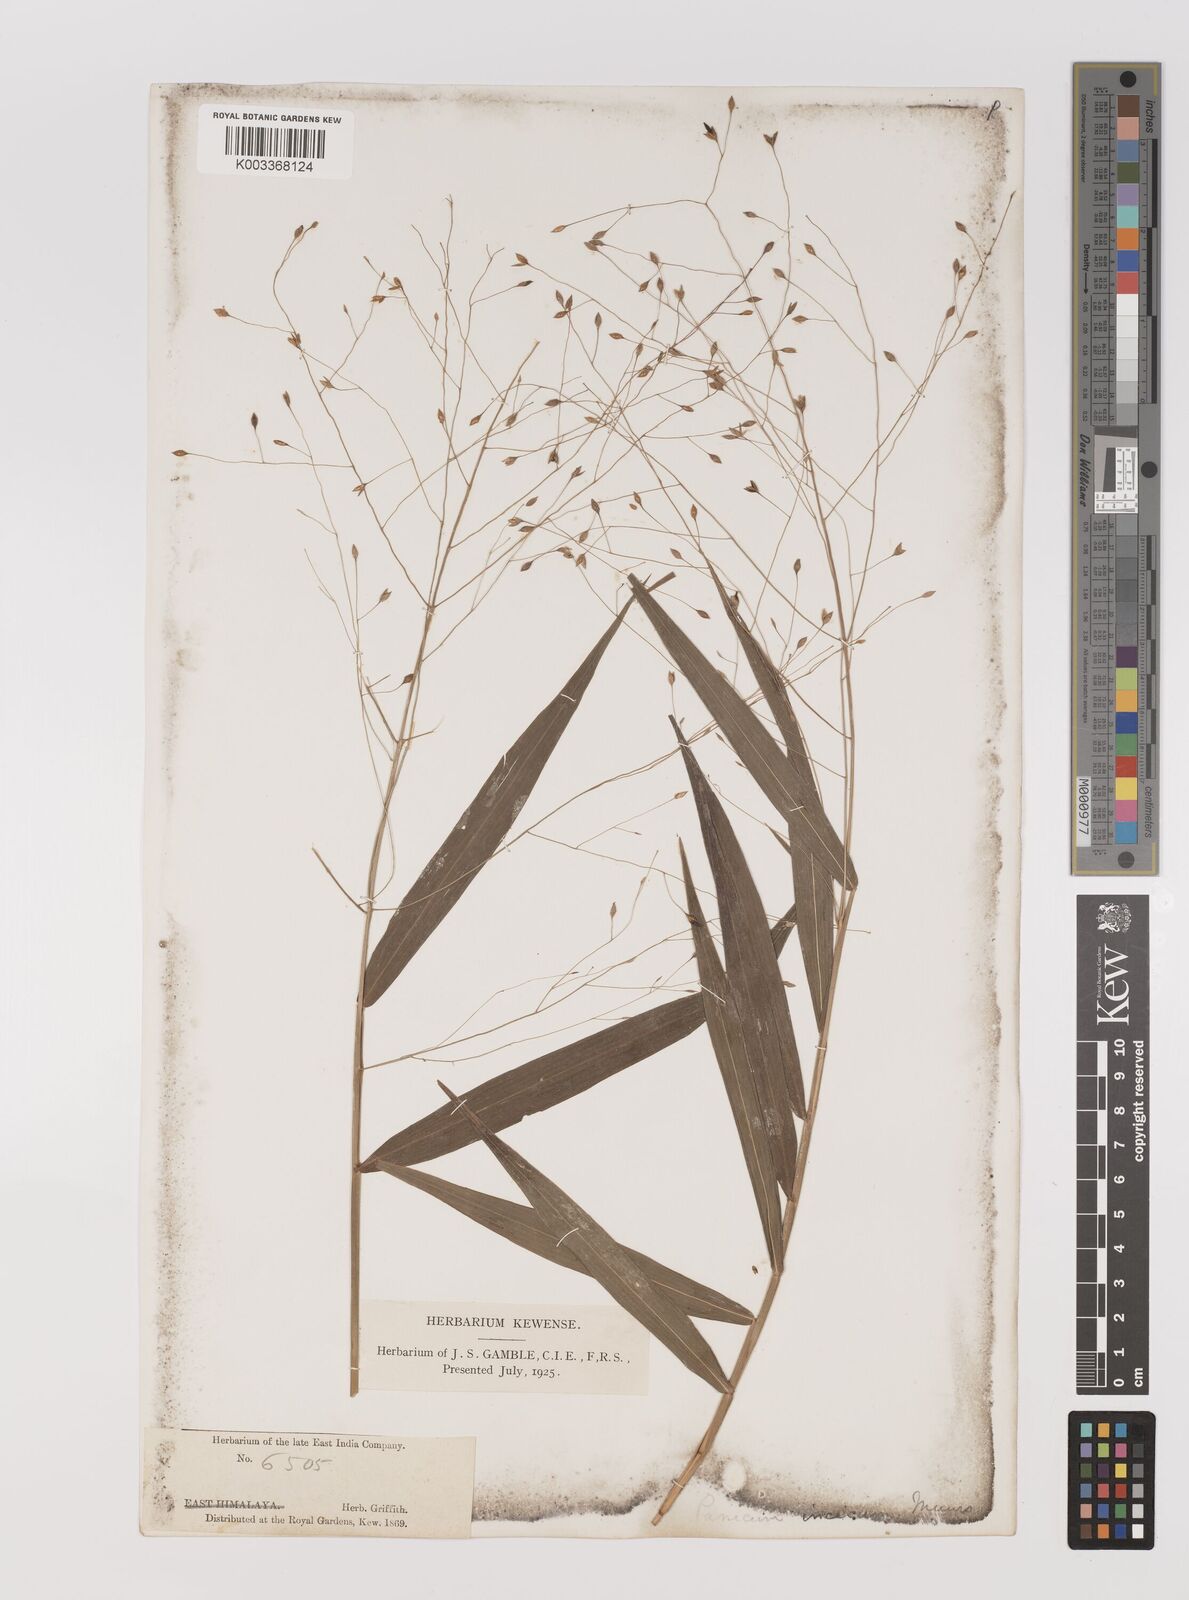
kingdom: Plantae
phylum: Tracheophyta
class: Liliopsida
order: Poales
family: Poaceae
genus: Panicum
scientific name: Panicum incisum
